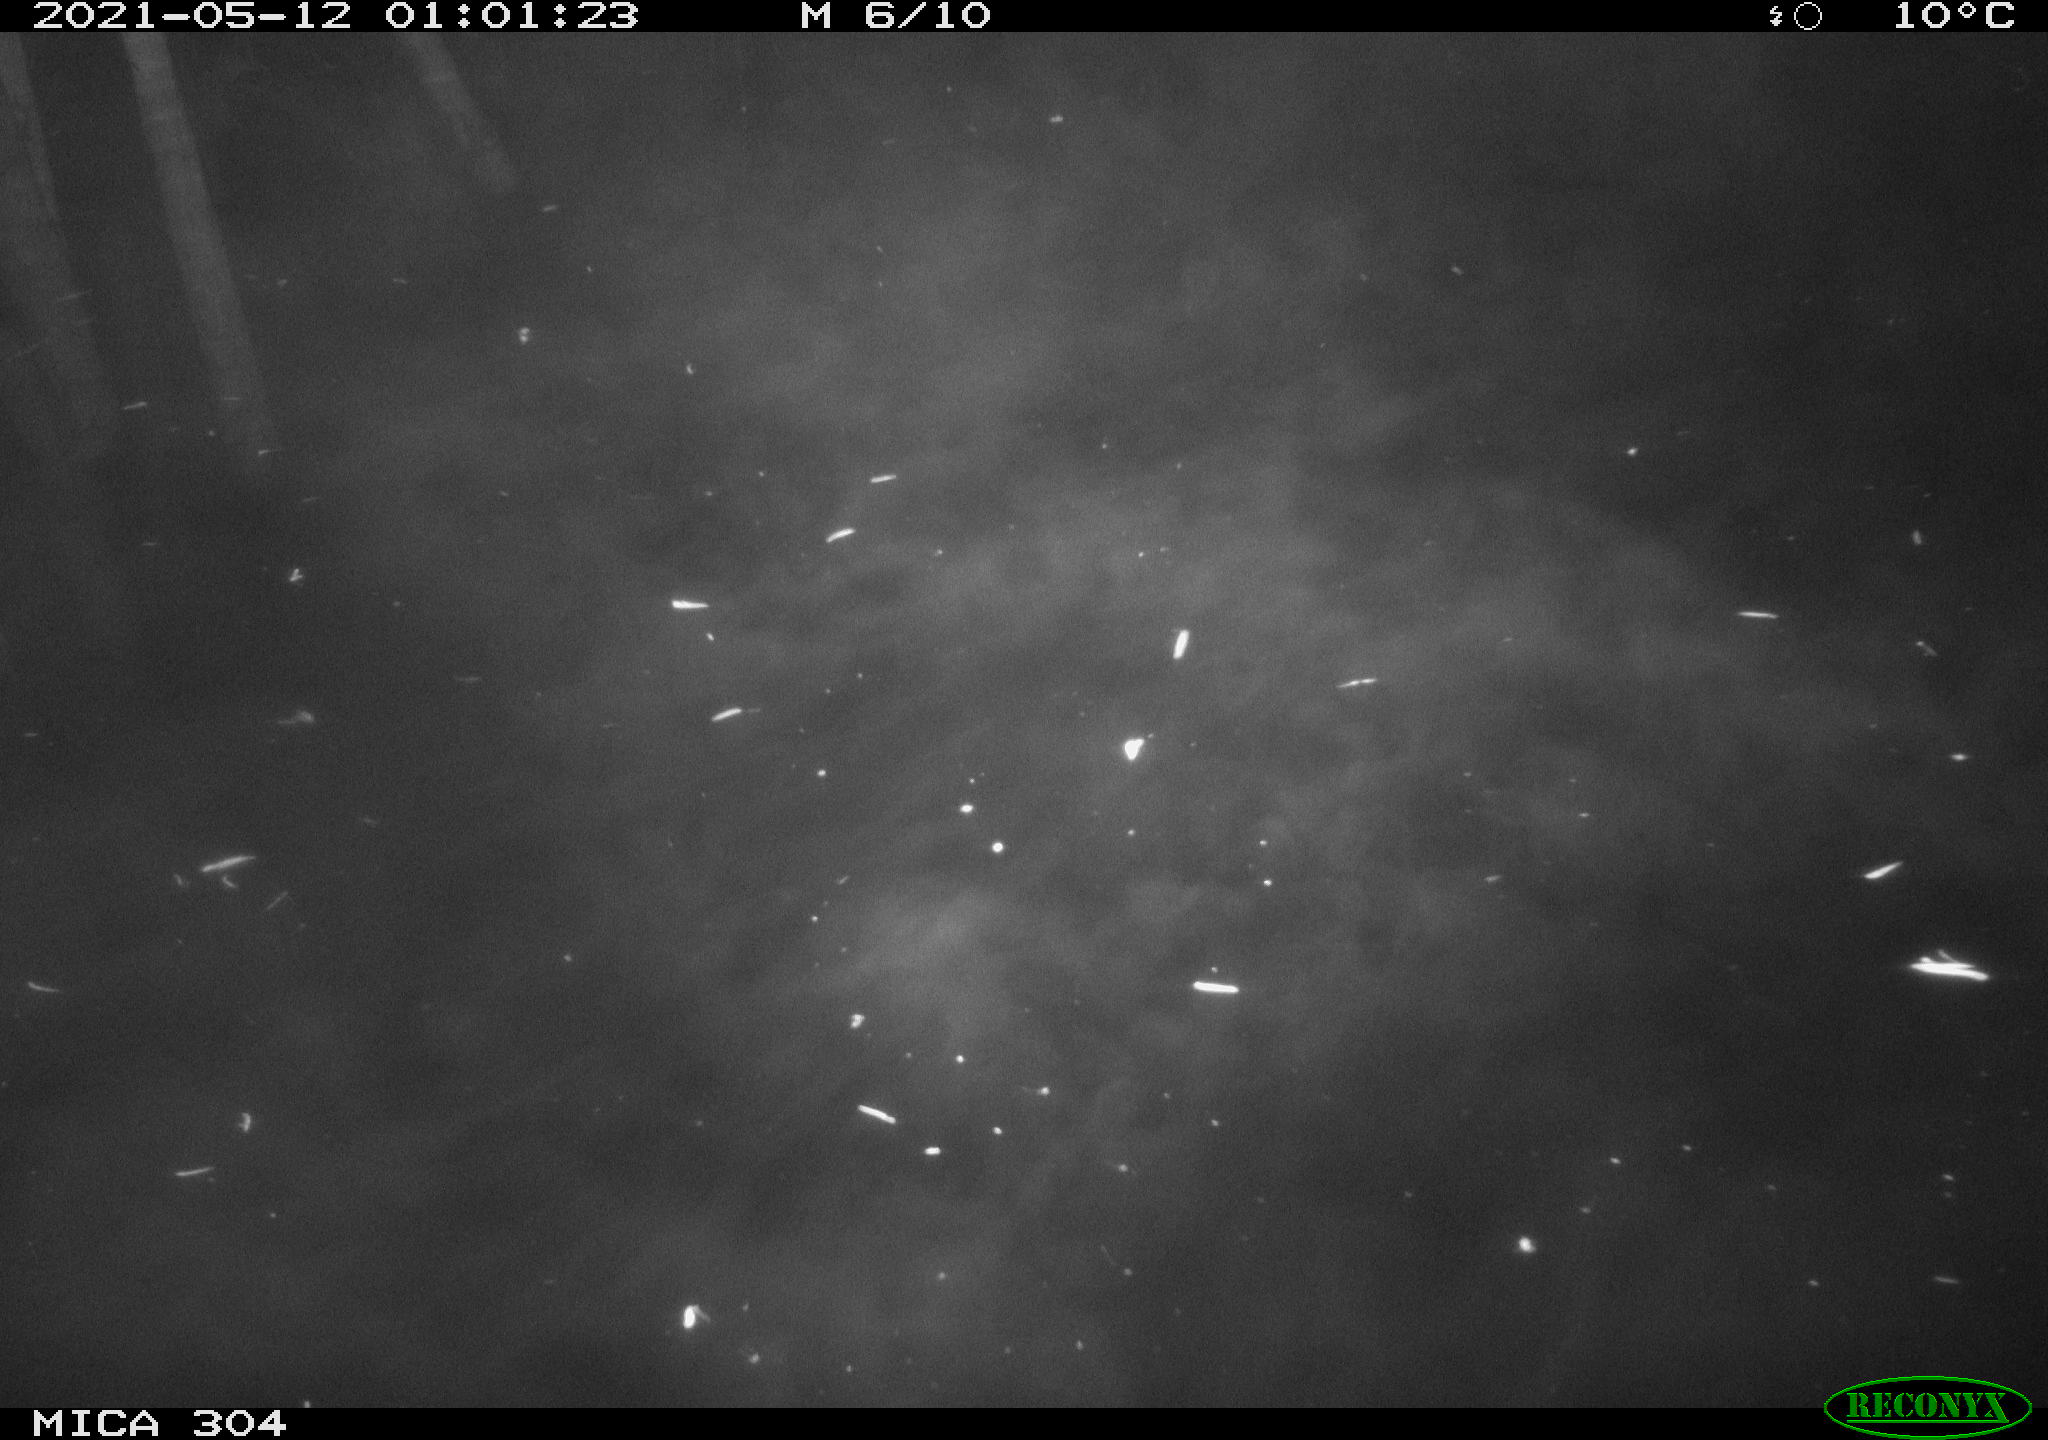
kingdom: Animalia
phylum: Chordata
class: Aves
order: Anseriformes
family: Anatidae
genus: Anas
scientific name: Anas platyrhynchos
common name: Mallard
